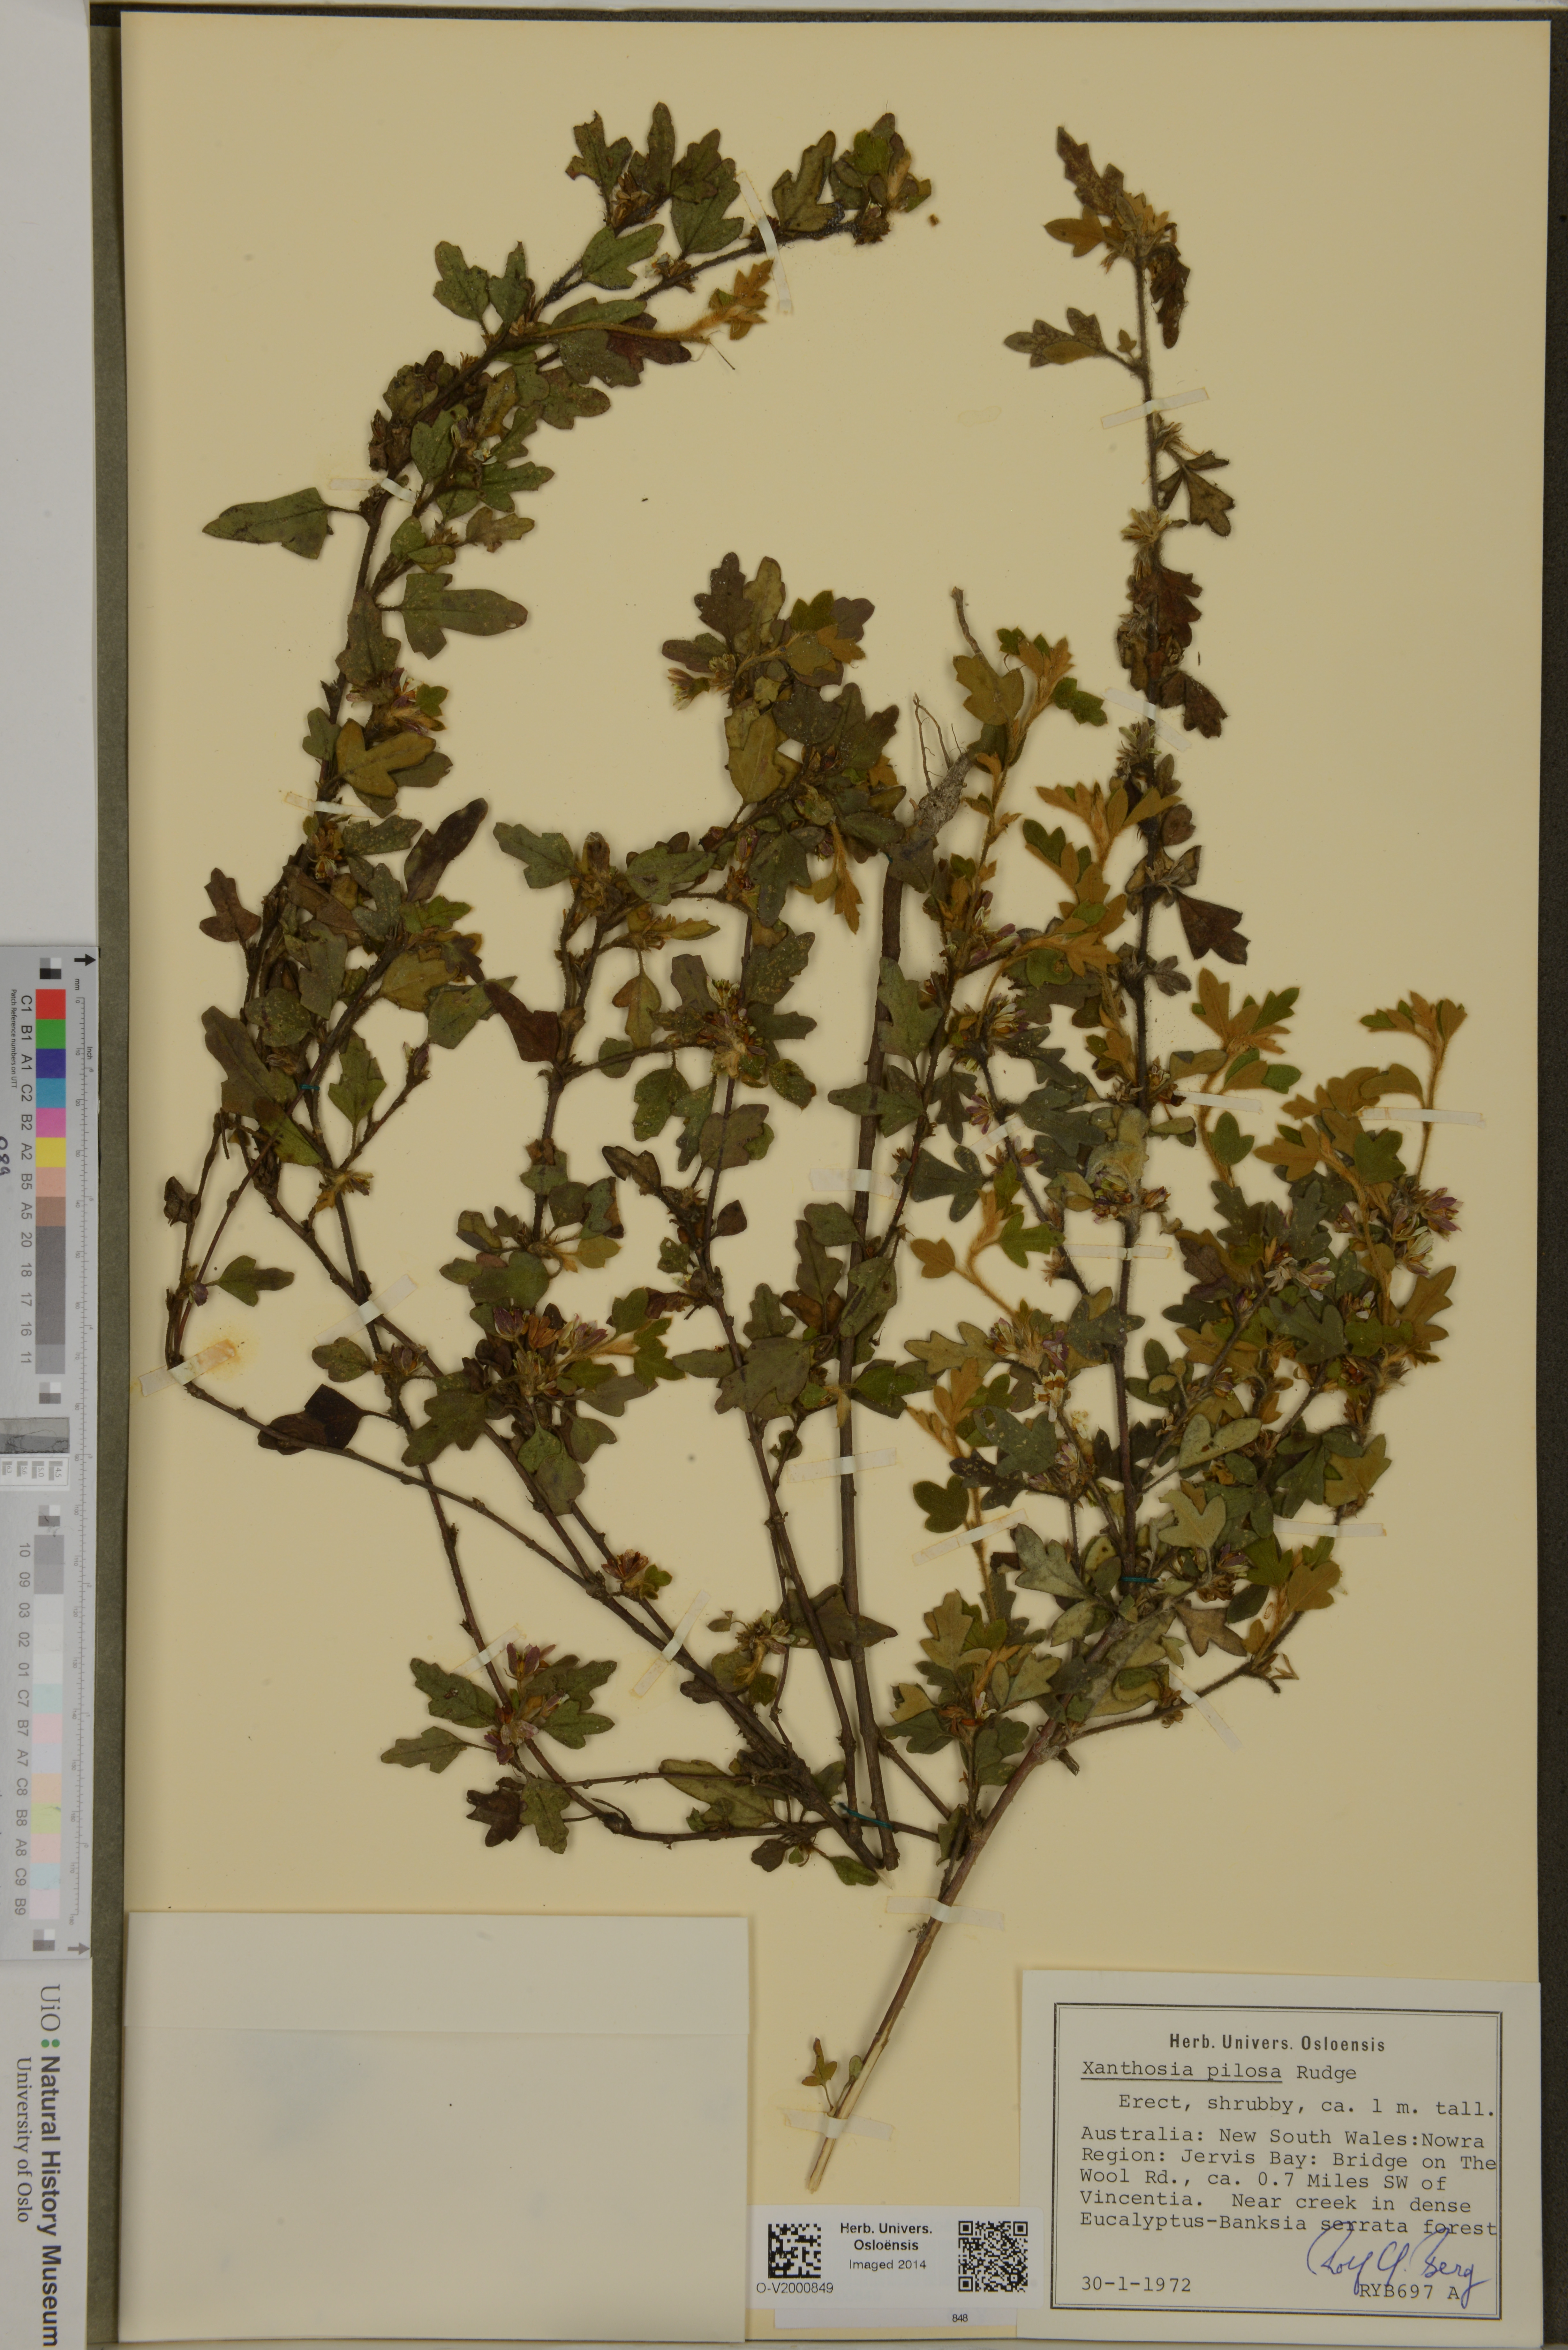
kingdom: Plantae
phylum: Tracheophyta
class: Magnoliopsida
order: Apiales
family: Apiaceae
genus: Xanthosia
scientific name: Xanthosia pilosa
